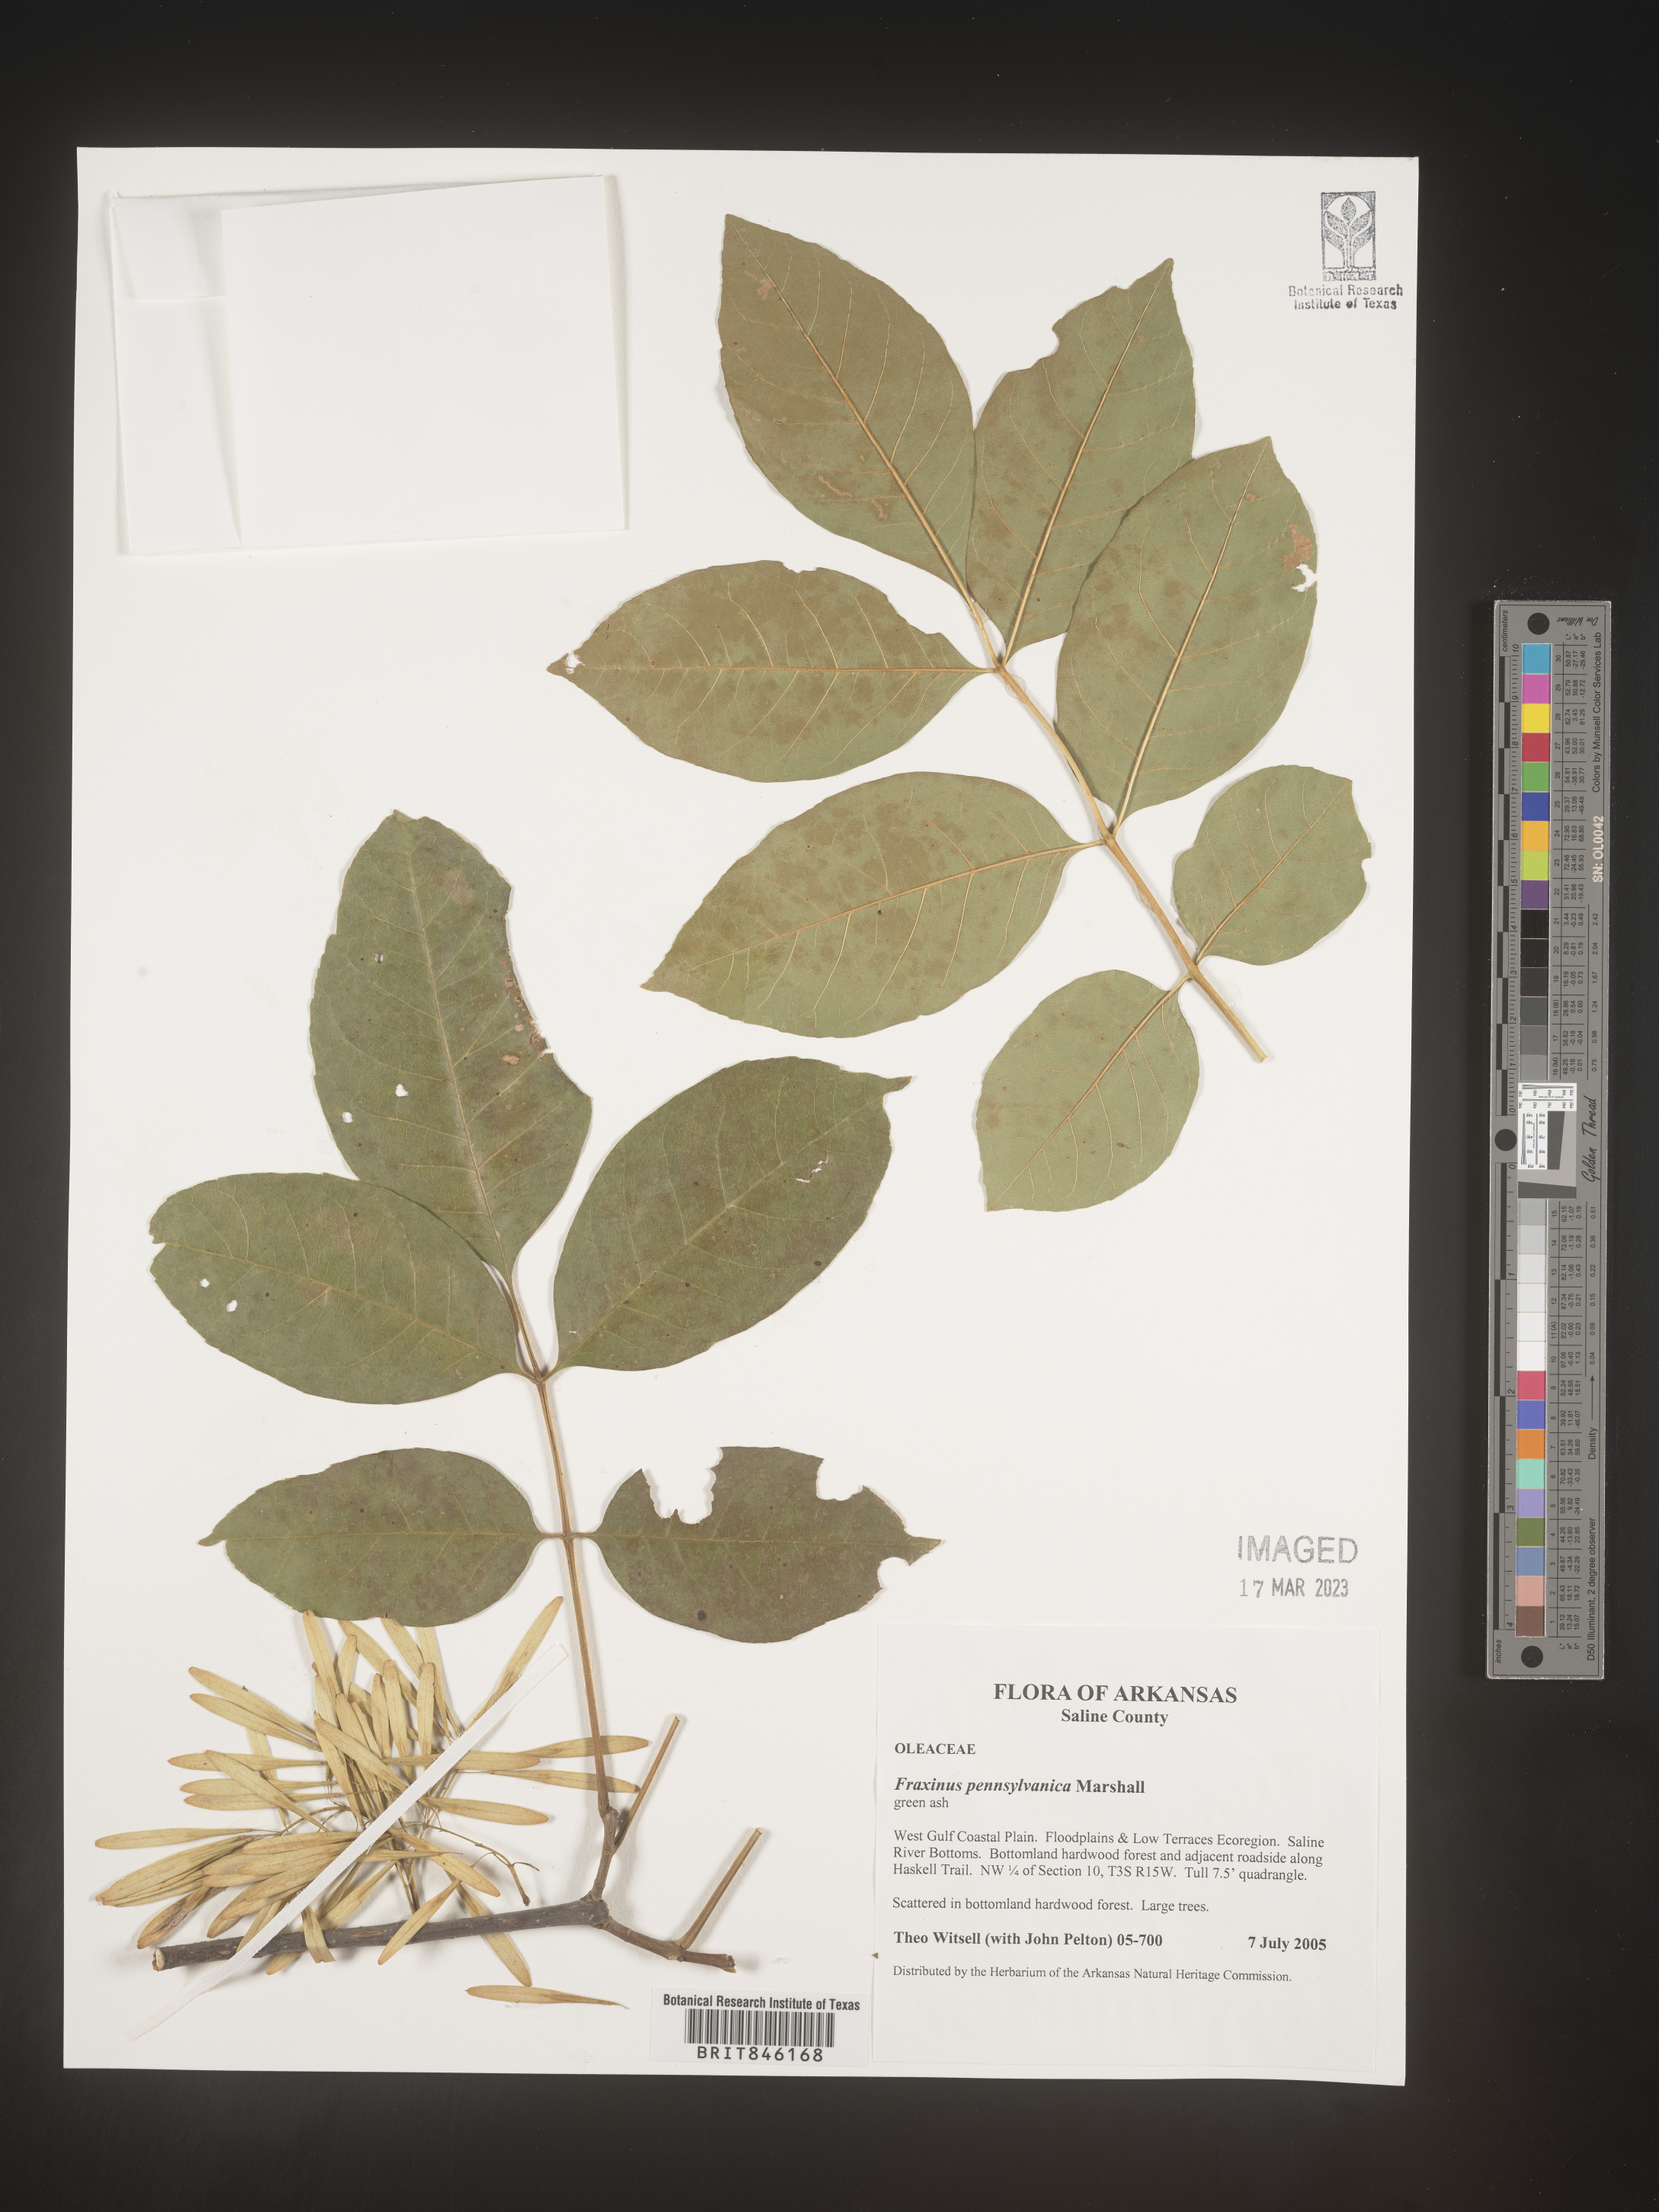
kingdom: Plantae
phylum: Tracheophyta
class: Magnoliopsida
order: Lamiales
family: Oleaceae
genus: Fraxinus
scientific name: Fraxinus pennsylvanica
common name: Green ash
